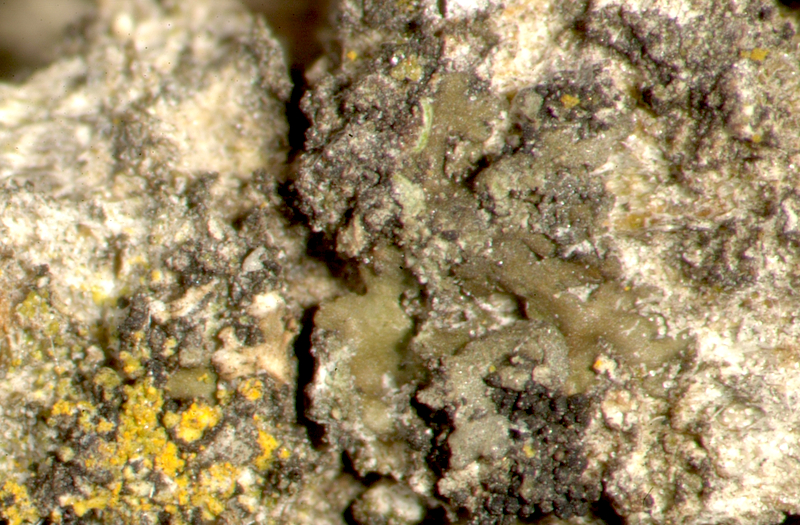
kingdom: Fungi
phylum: Ascomycota
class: Candelariomycetes
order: Candelariales
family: Candelariaceae
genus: Candelaria
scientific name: Candelaria concolor
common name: Candleflame lichen
